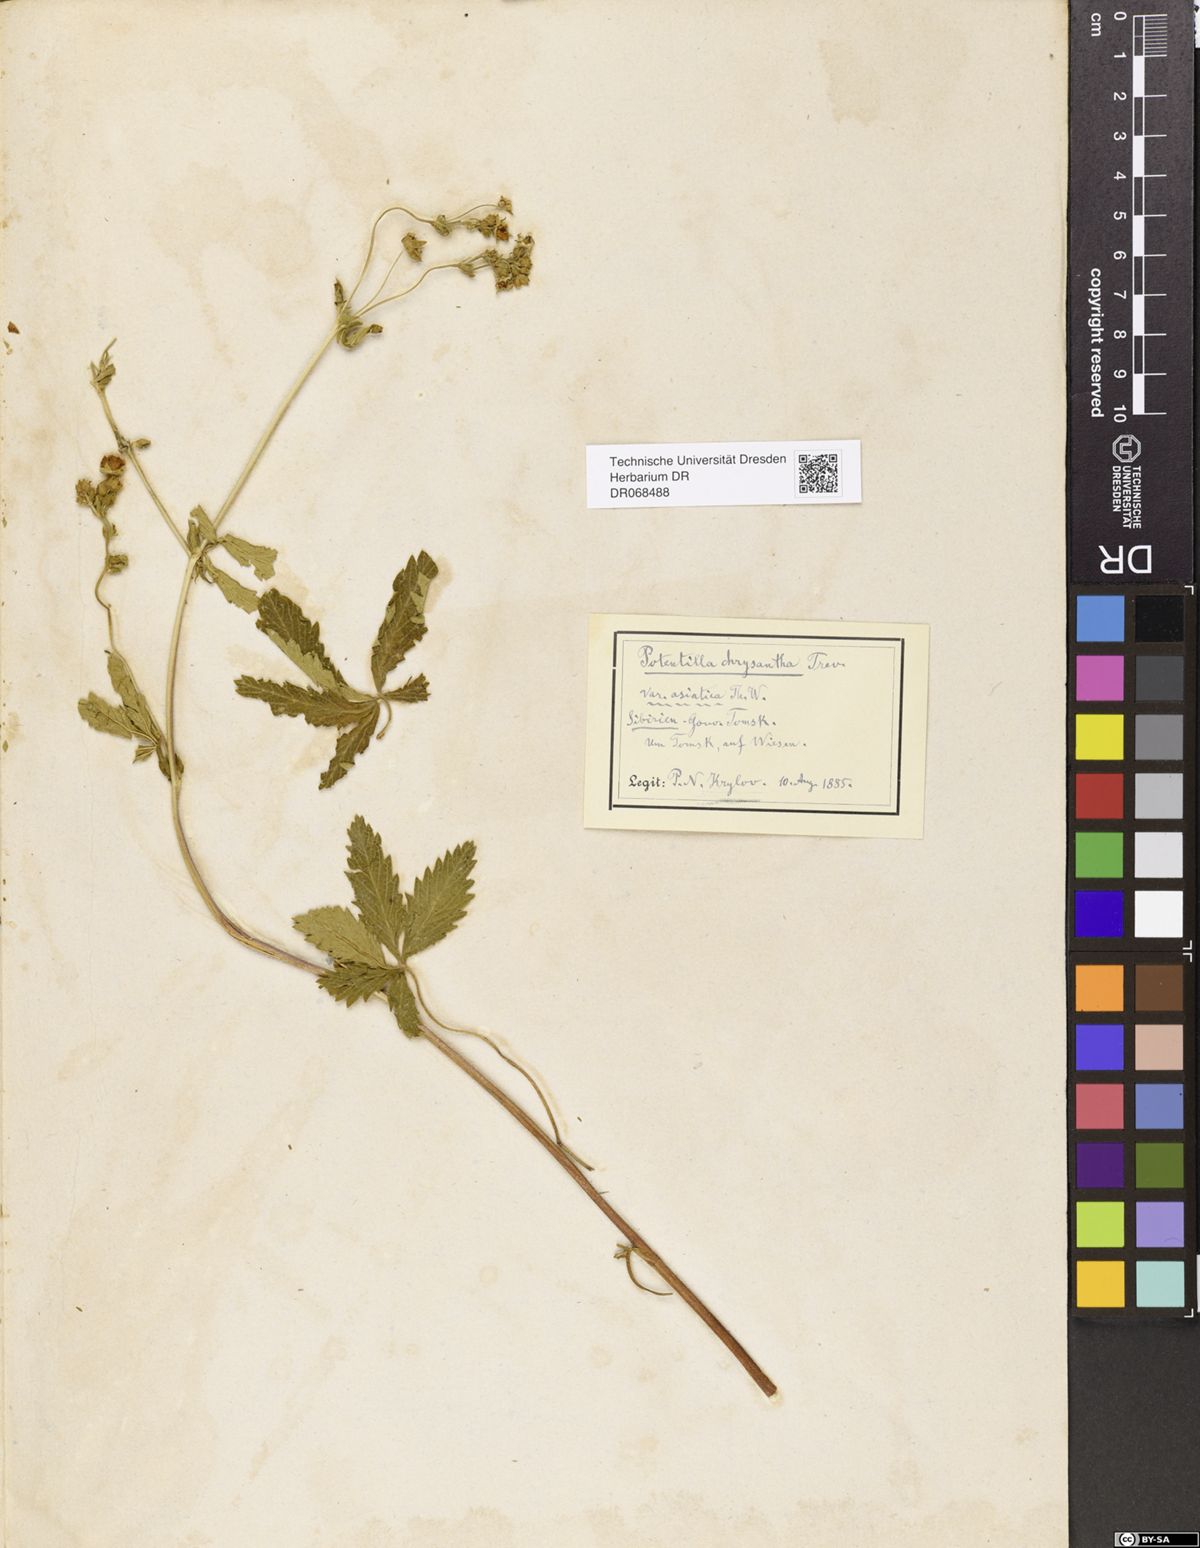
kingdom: Plantae
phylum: Tracheophyta
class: Magnoliopsida
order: Rosales
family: Rosaceae
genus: Potentilla
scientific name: Potentilla asiatica
